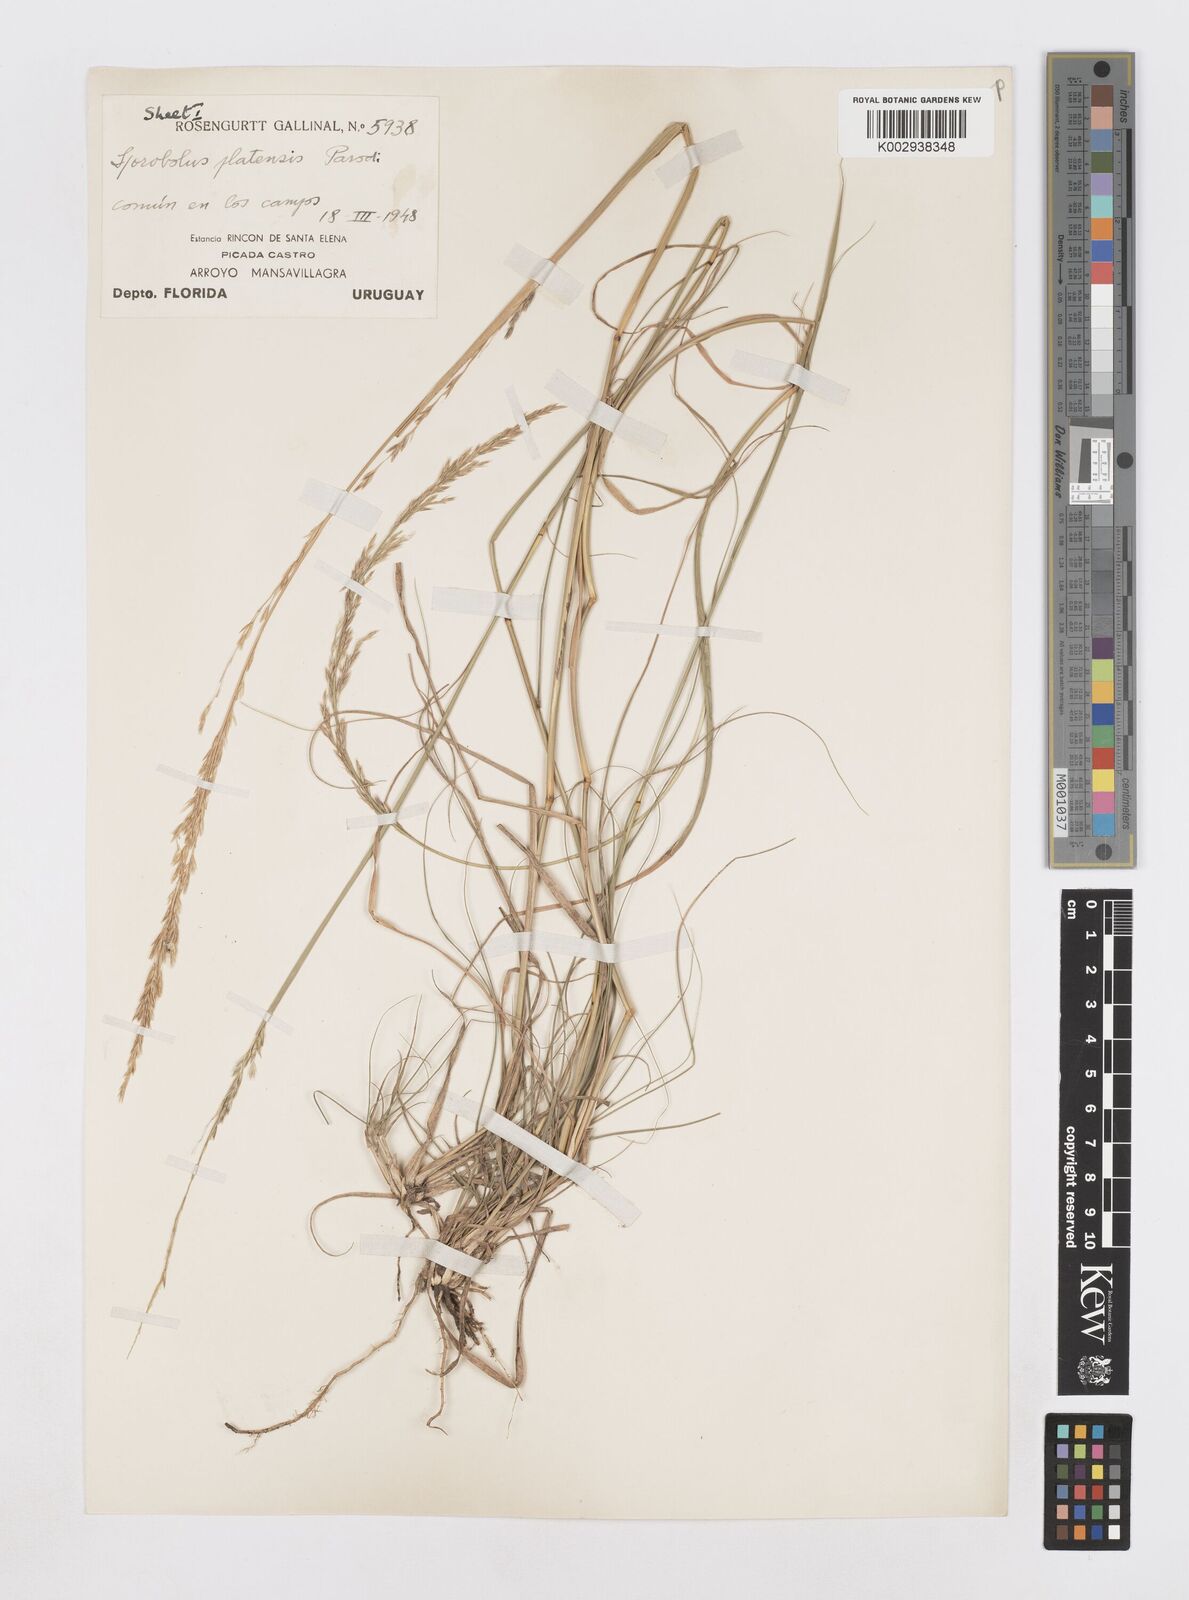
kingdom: Plantae
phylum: Tracheophyta
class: Liliopsida
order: Poales
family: Poaceae
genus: Sporobolus
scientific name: Sporobolus platensis
